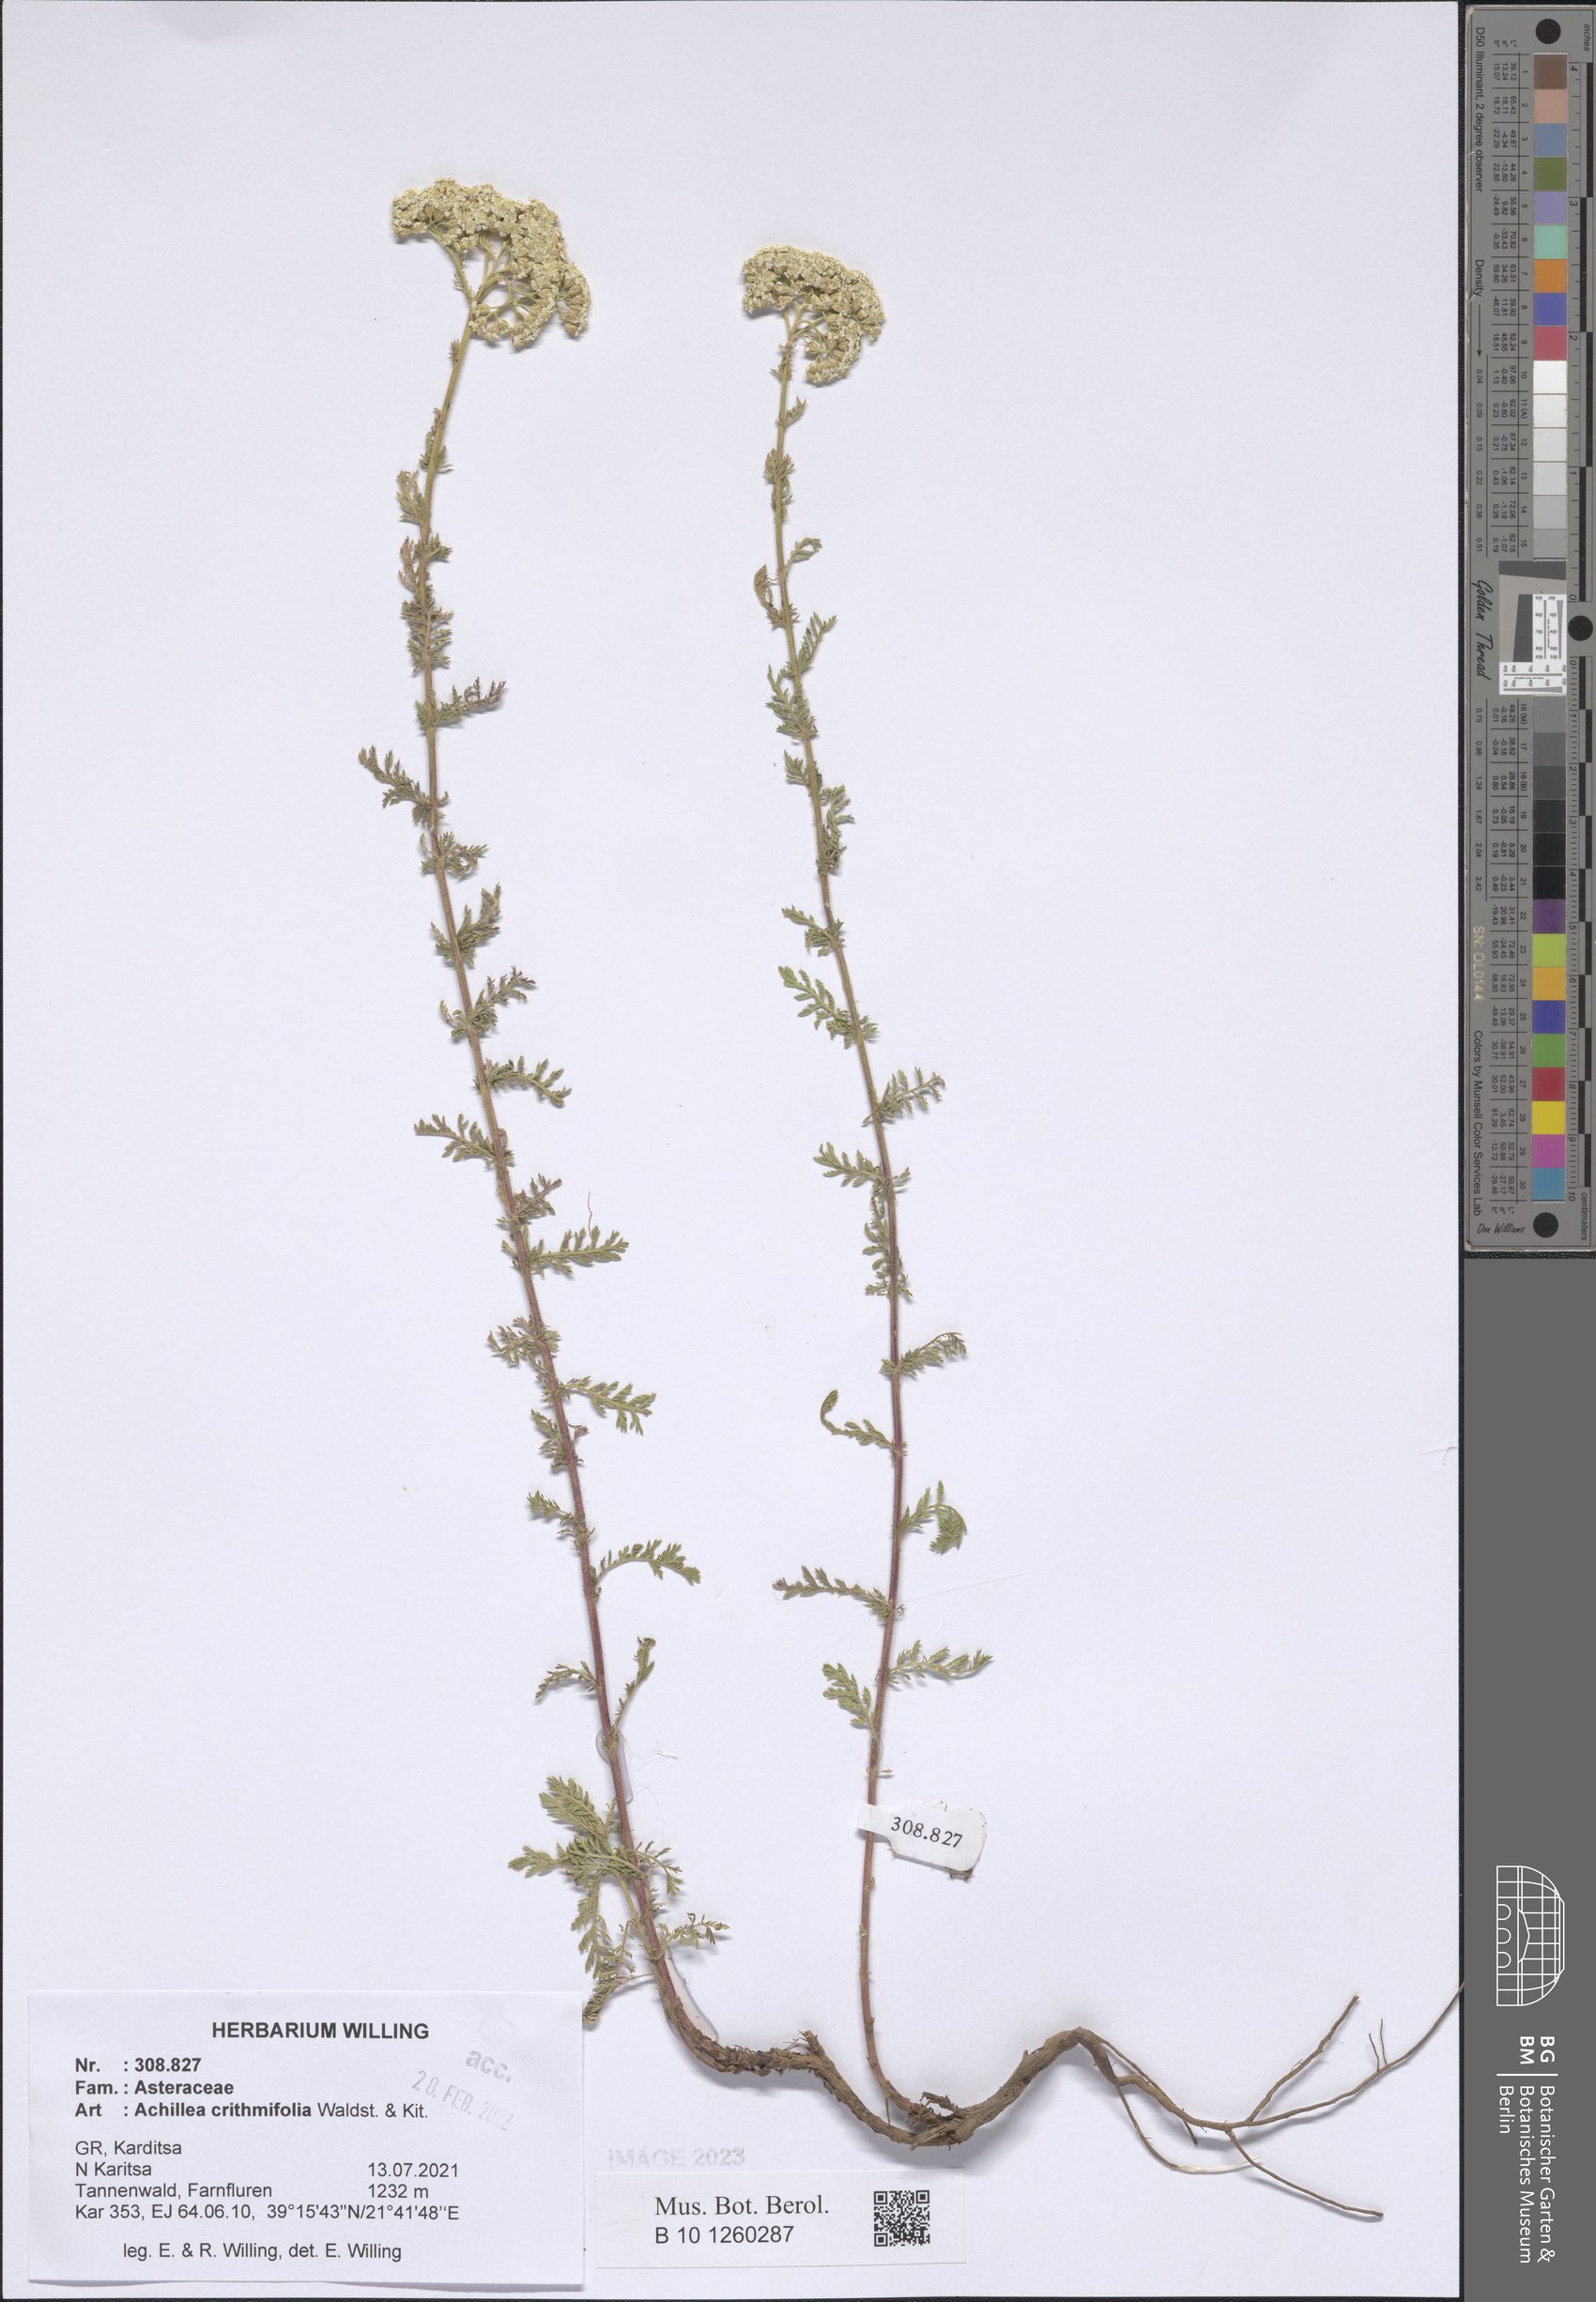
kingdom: Plantae
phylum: Tracheophyta
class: Magnoliopsida
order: Asterales
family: Asteraceae
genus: Achillea
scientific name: Achillea crithmifolia
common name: Yarrow
